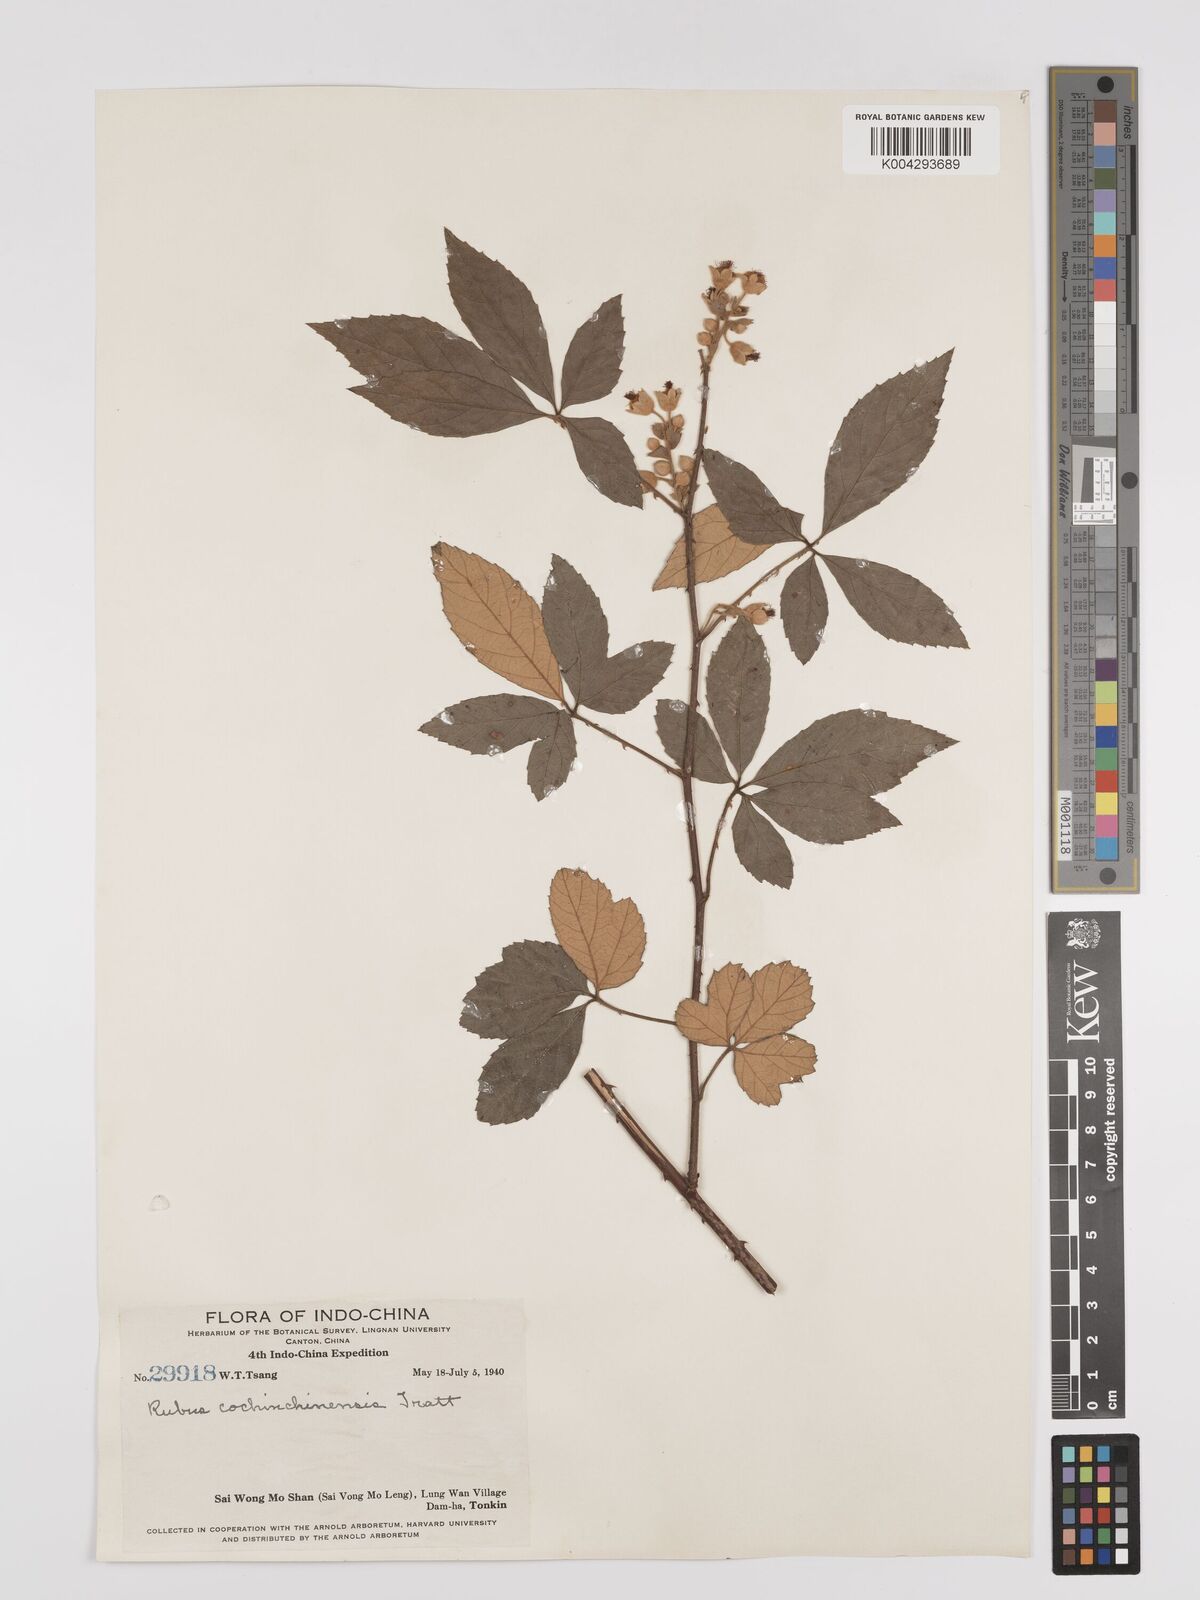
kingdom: Plantae
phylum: Tracheophyta
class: Magnoliopsida
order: Rosales
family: Rosaceae
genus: Rubus
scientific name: Rubus cochinchinensis
